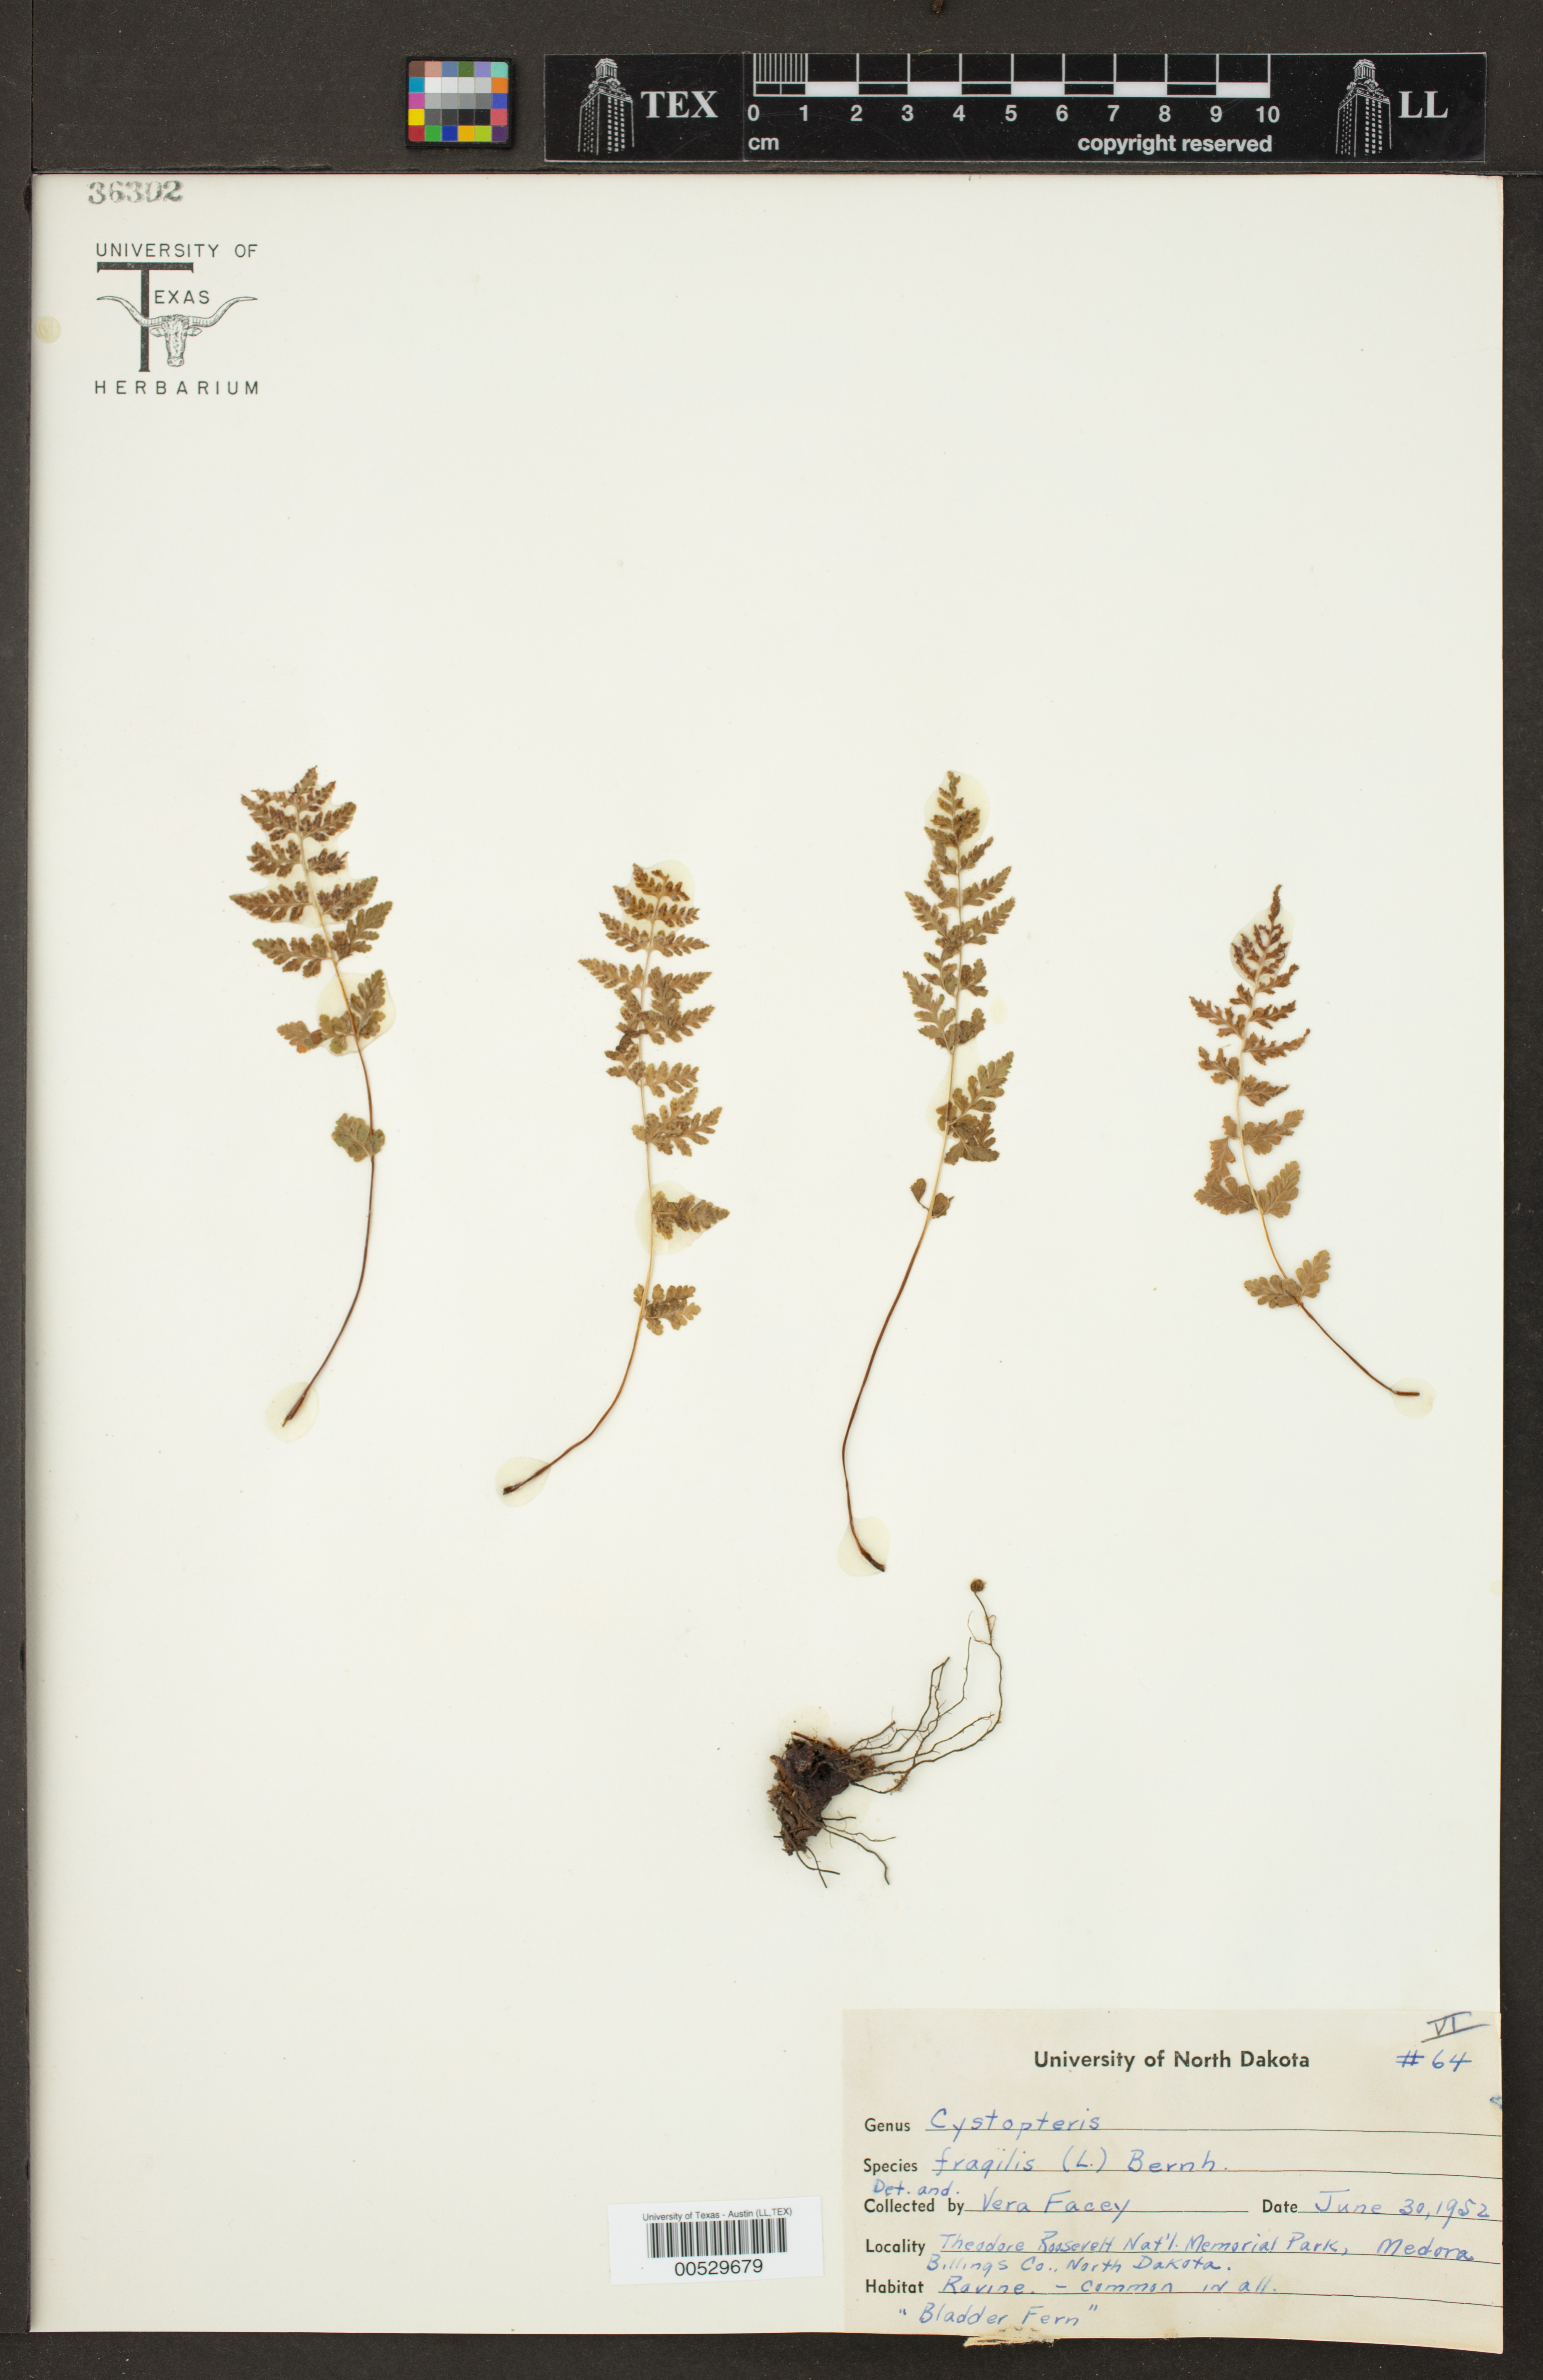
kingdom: Plantae
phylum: Tracheophyta
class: Polypodiopsida
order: Polypodiales
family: Cystopteridaceae
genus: Cystopteris
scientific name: Cystopteris fragilis
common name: Brittle bladder fern
